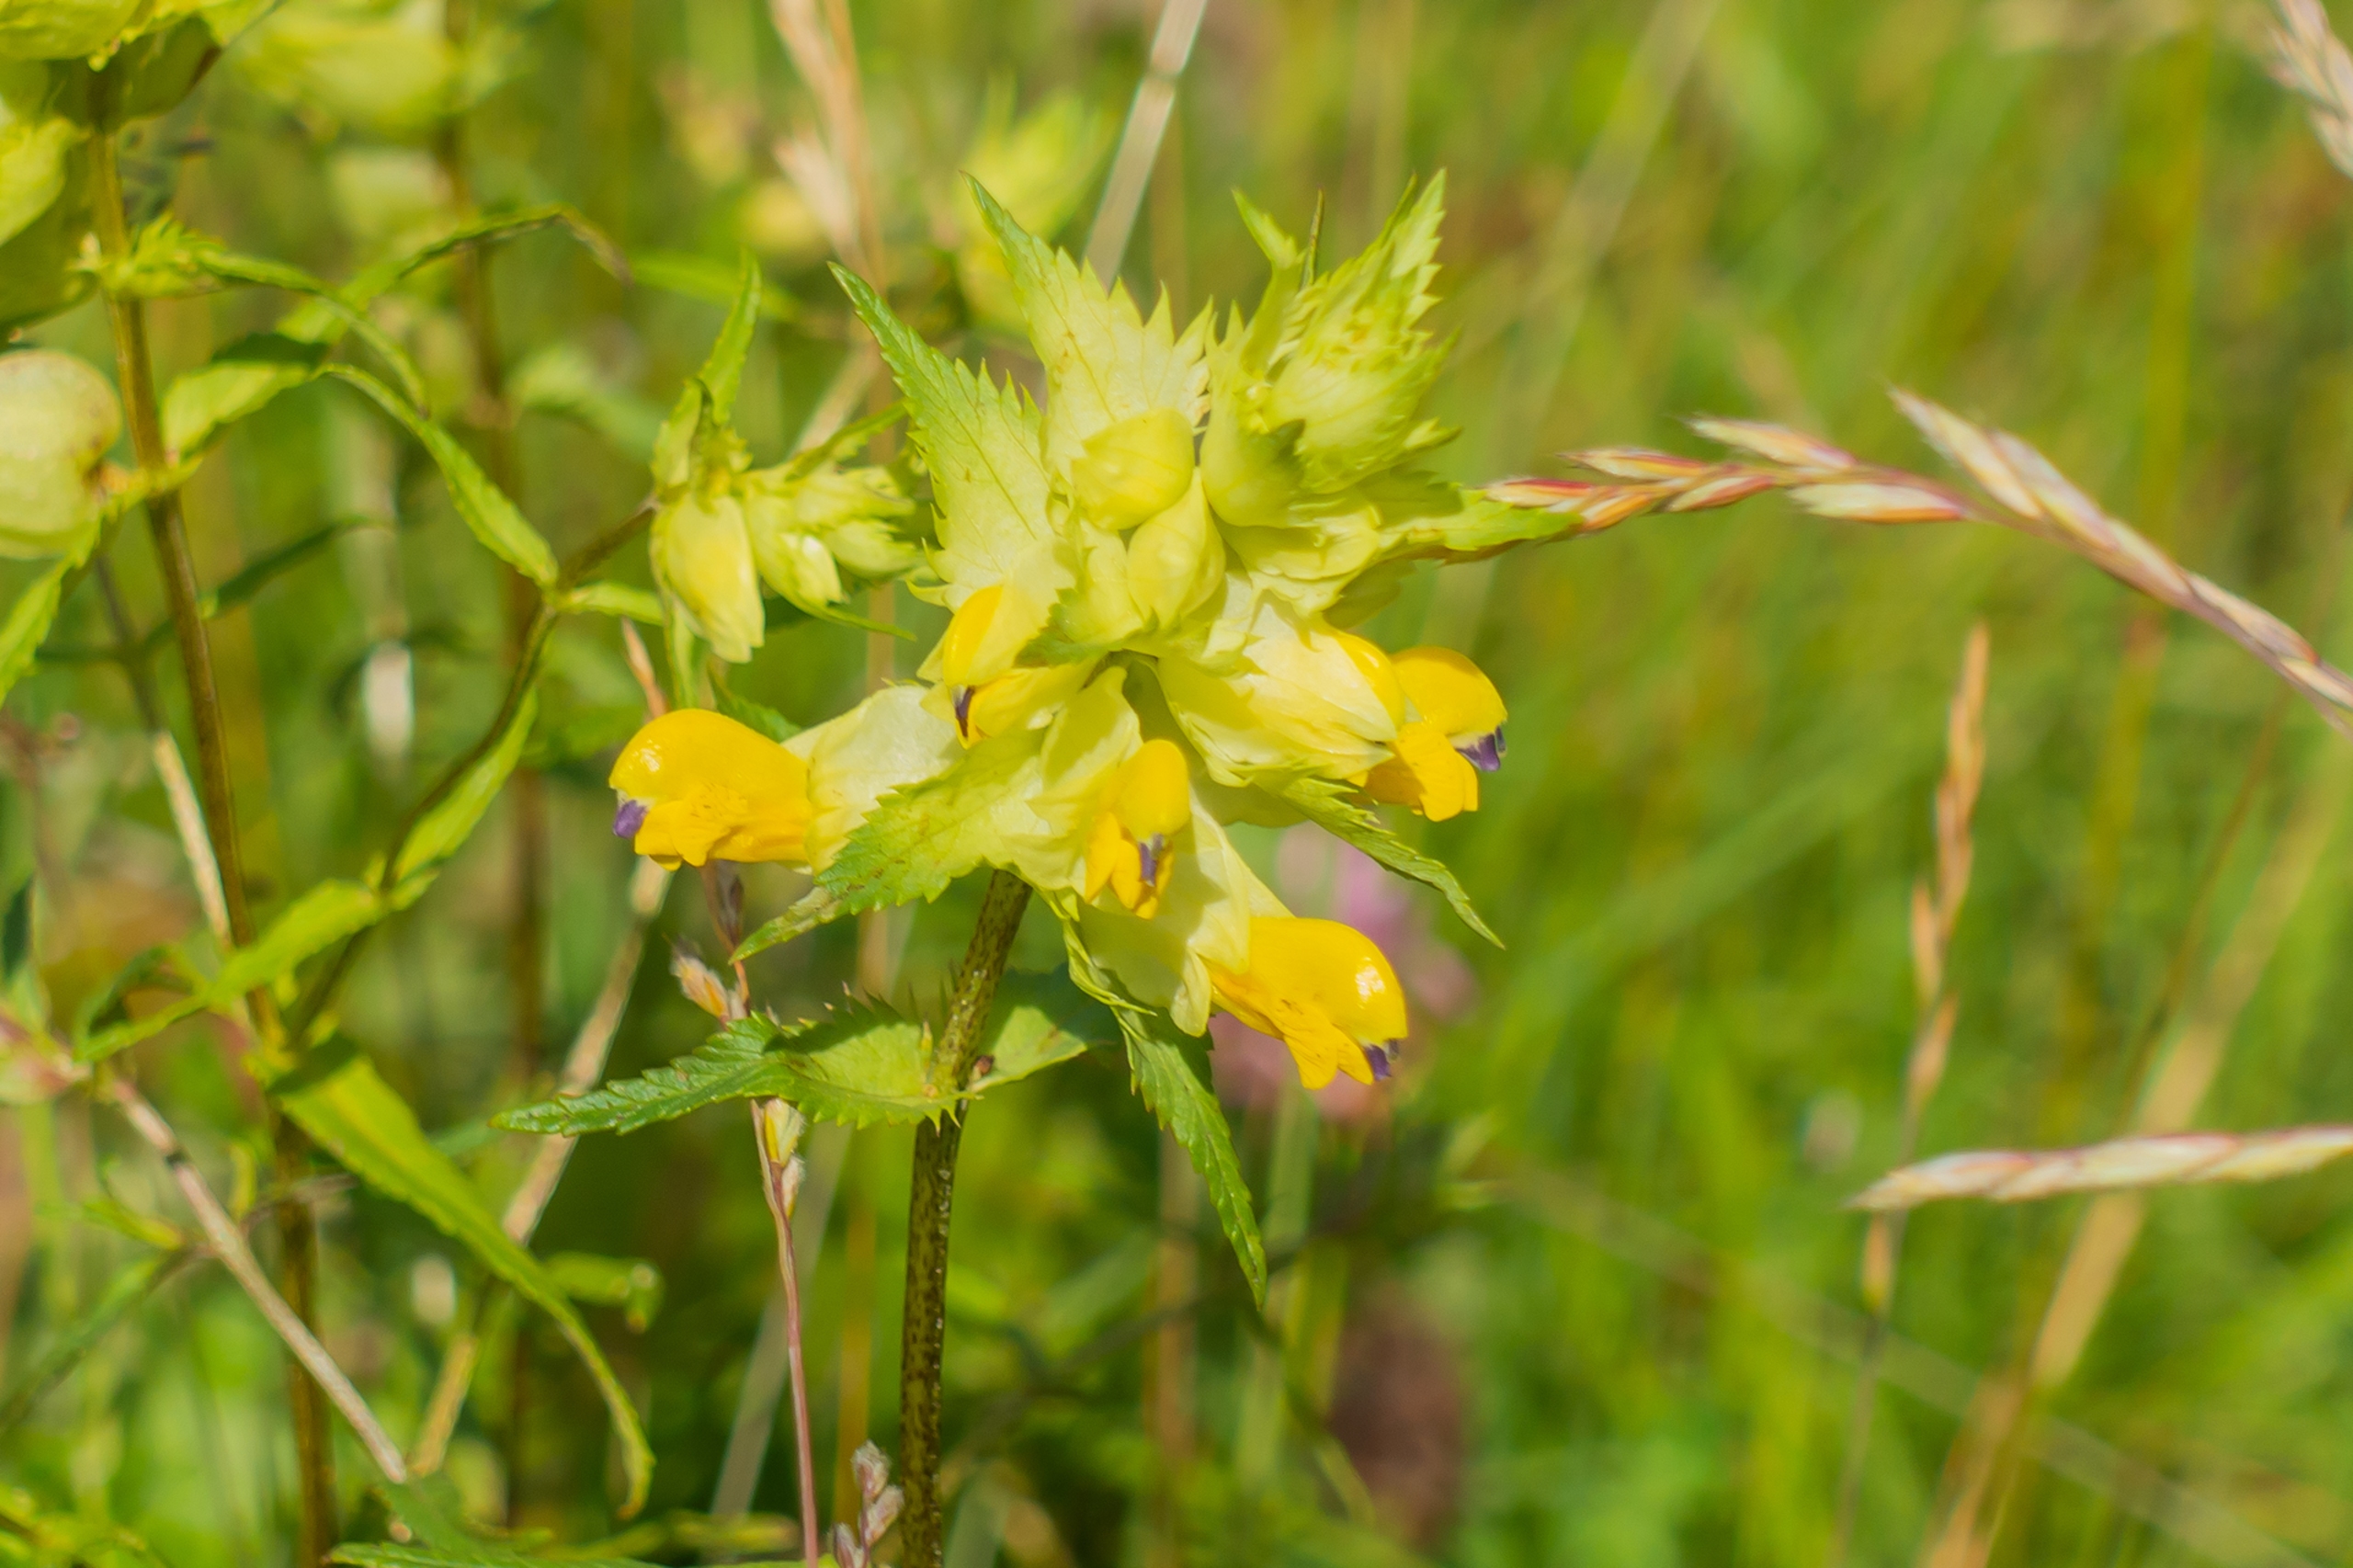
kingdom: Plantae
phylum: Tracheophyta
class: Magnoliopsida
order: Lamiales
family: Orobanchaceae
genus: Rhinanthus
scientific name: Rhinanthus
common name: Stor skjaller
